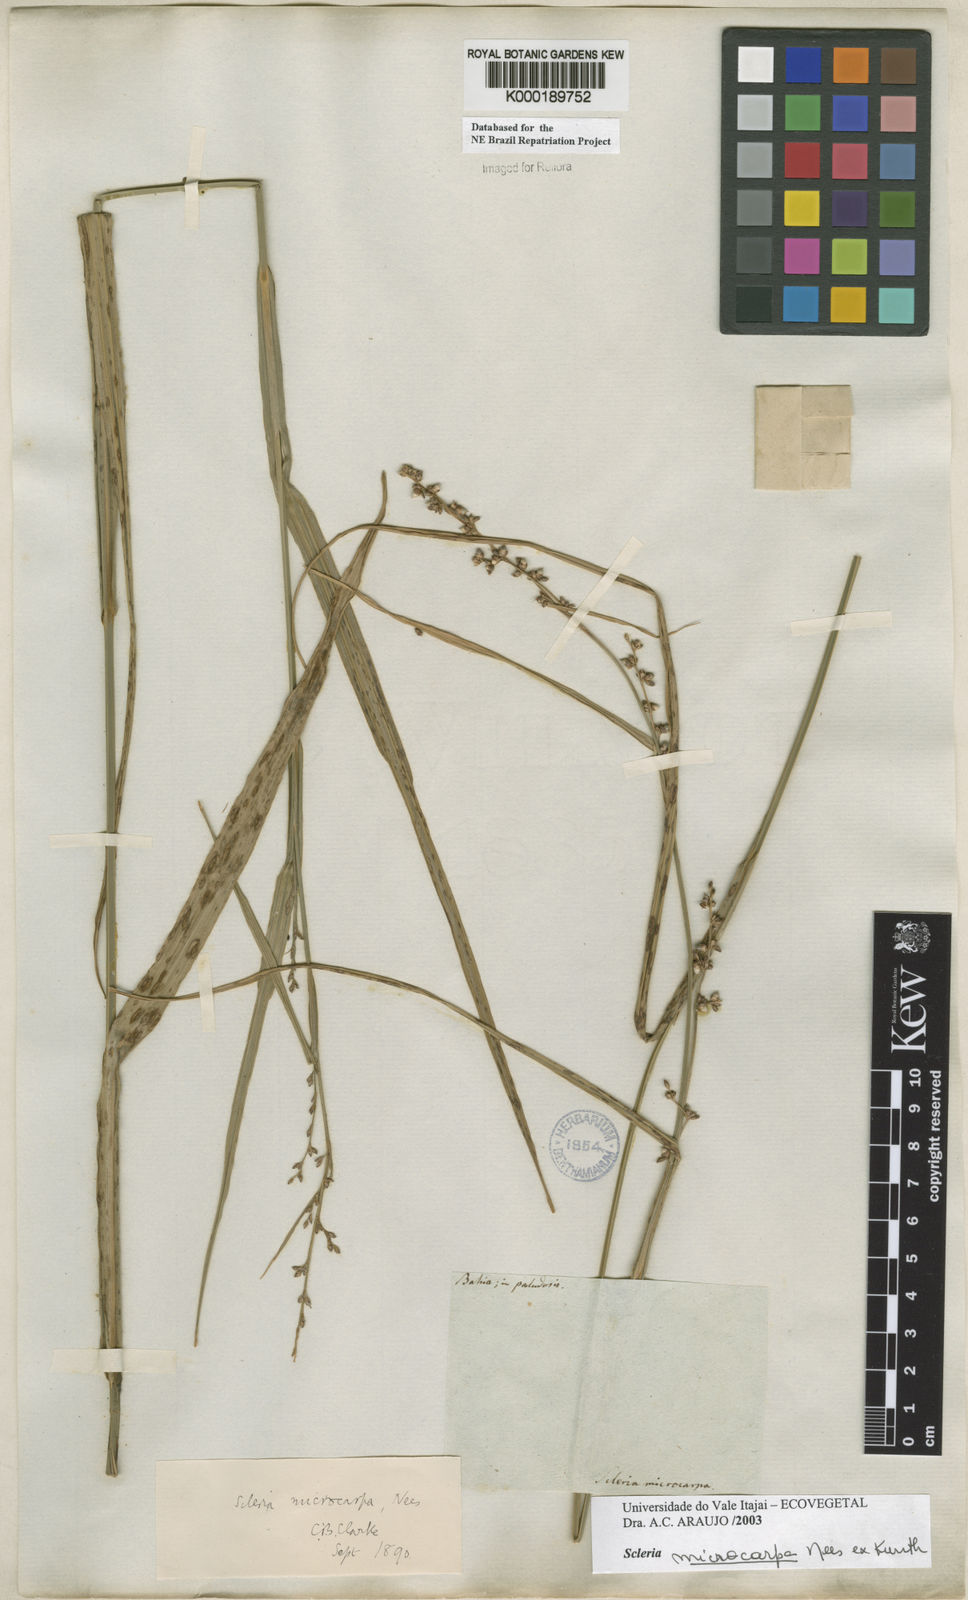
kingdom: Plantae
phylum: Tracheophyta
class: Liliopsida
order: Poales
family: Cyperaceae
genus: Scleria
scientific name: Scleria microcarpa
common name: Tropical nutrush
